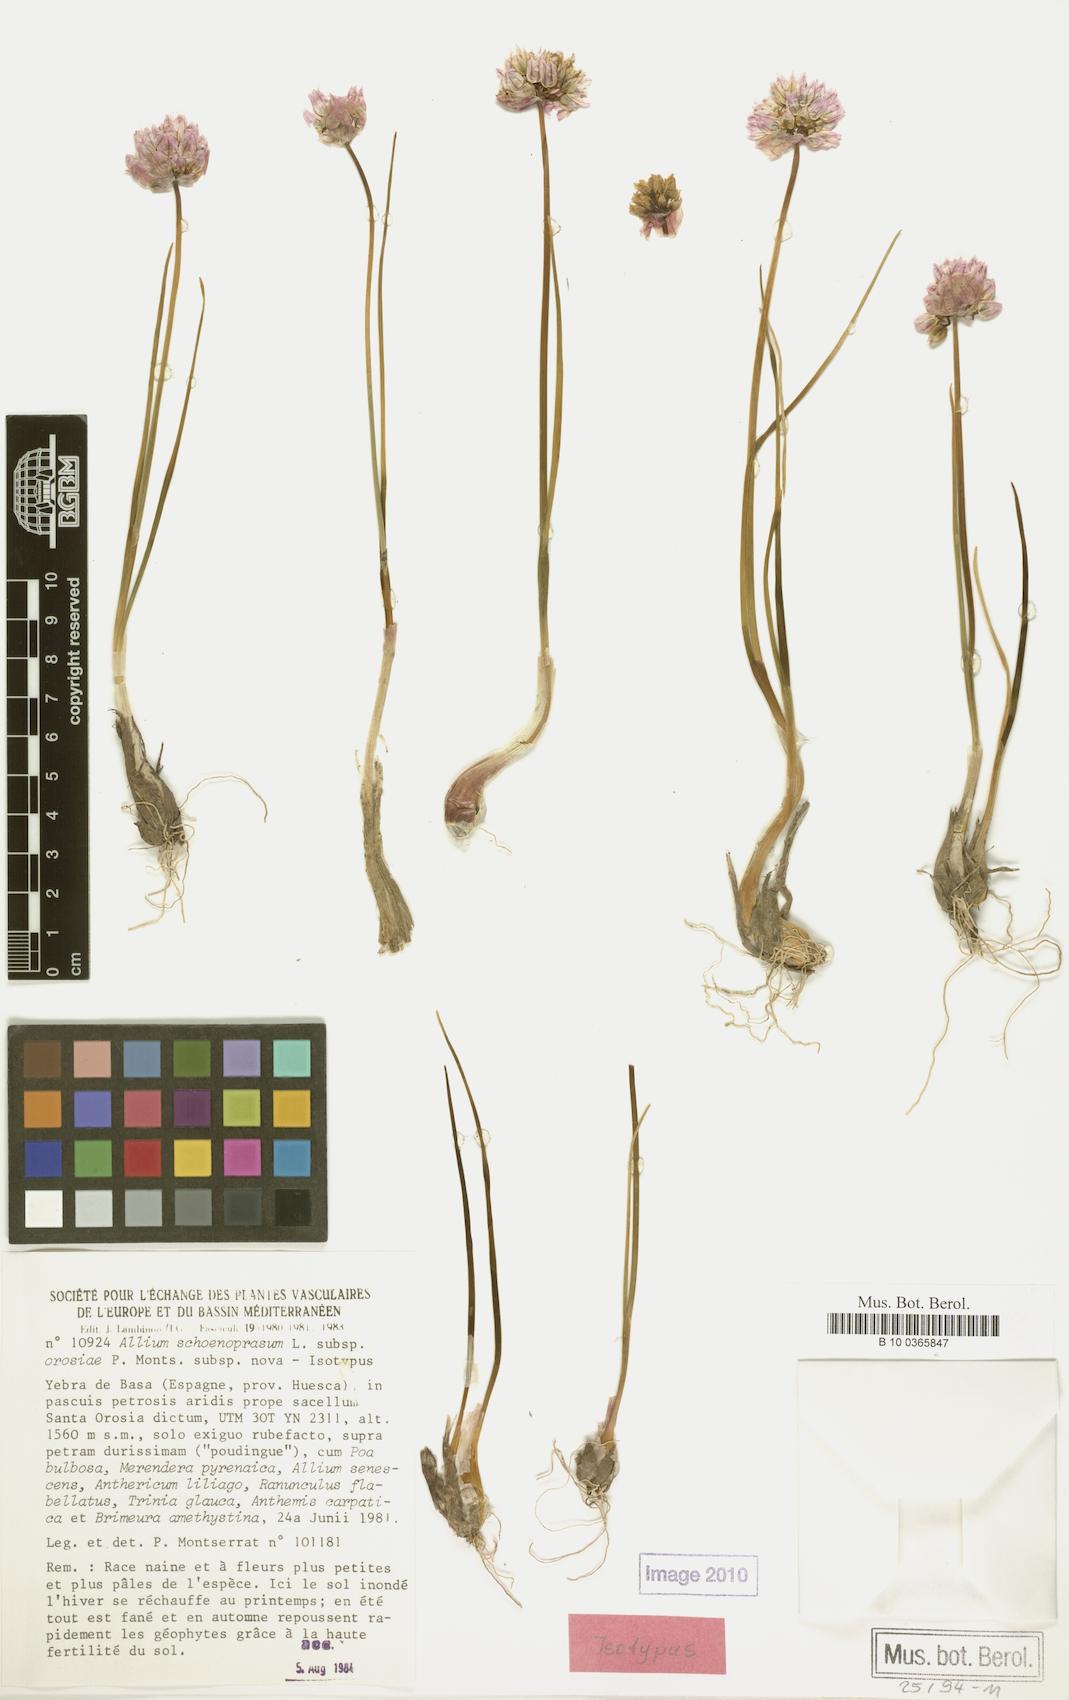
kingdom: Plantae
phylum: Tracheophyta
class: Liliopsida
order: Asparagales
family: Amaryllidaceae
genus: Allium
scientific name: Allium schoenoprasum
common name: Chives
